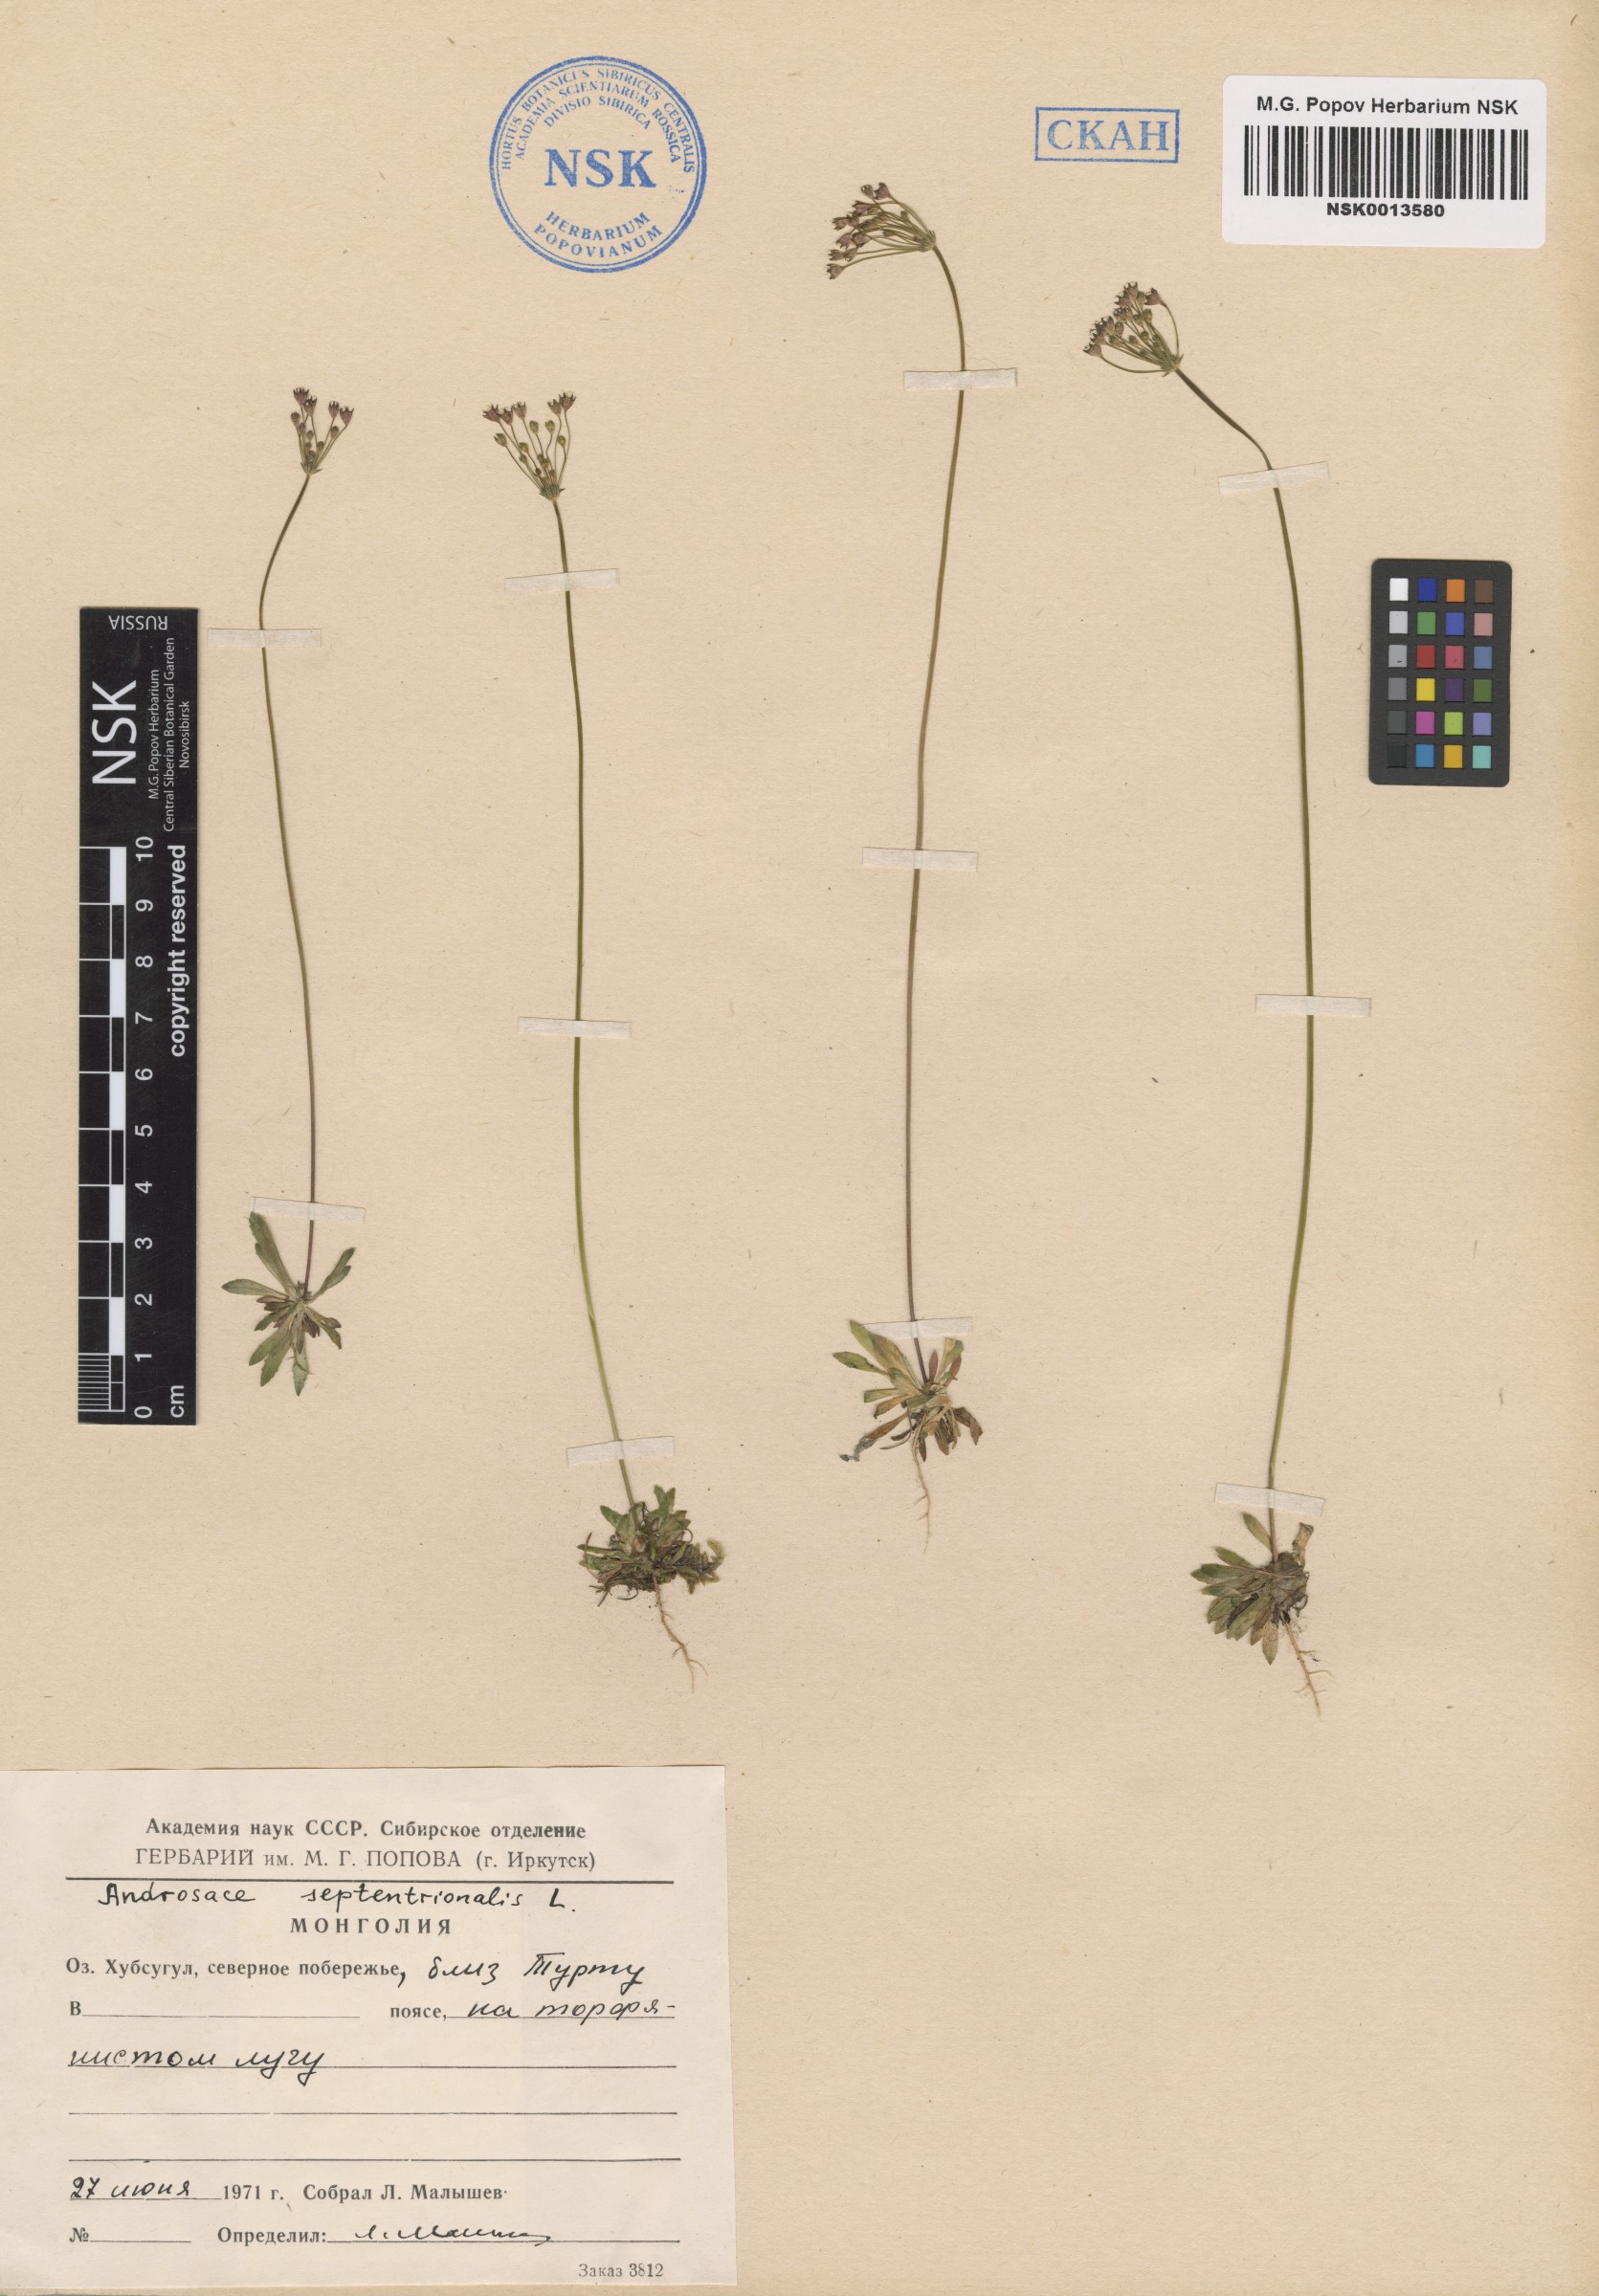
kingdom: Plantae
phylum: Tracheophyta
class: Magnoliopsida
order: Ericales
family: Primulaceae
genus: Androsace
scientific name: Androsace septentrionalis
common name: Hairy northern fairy-candelabra
